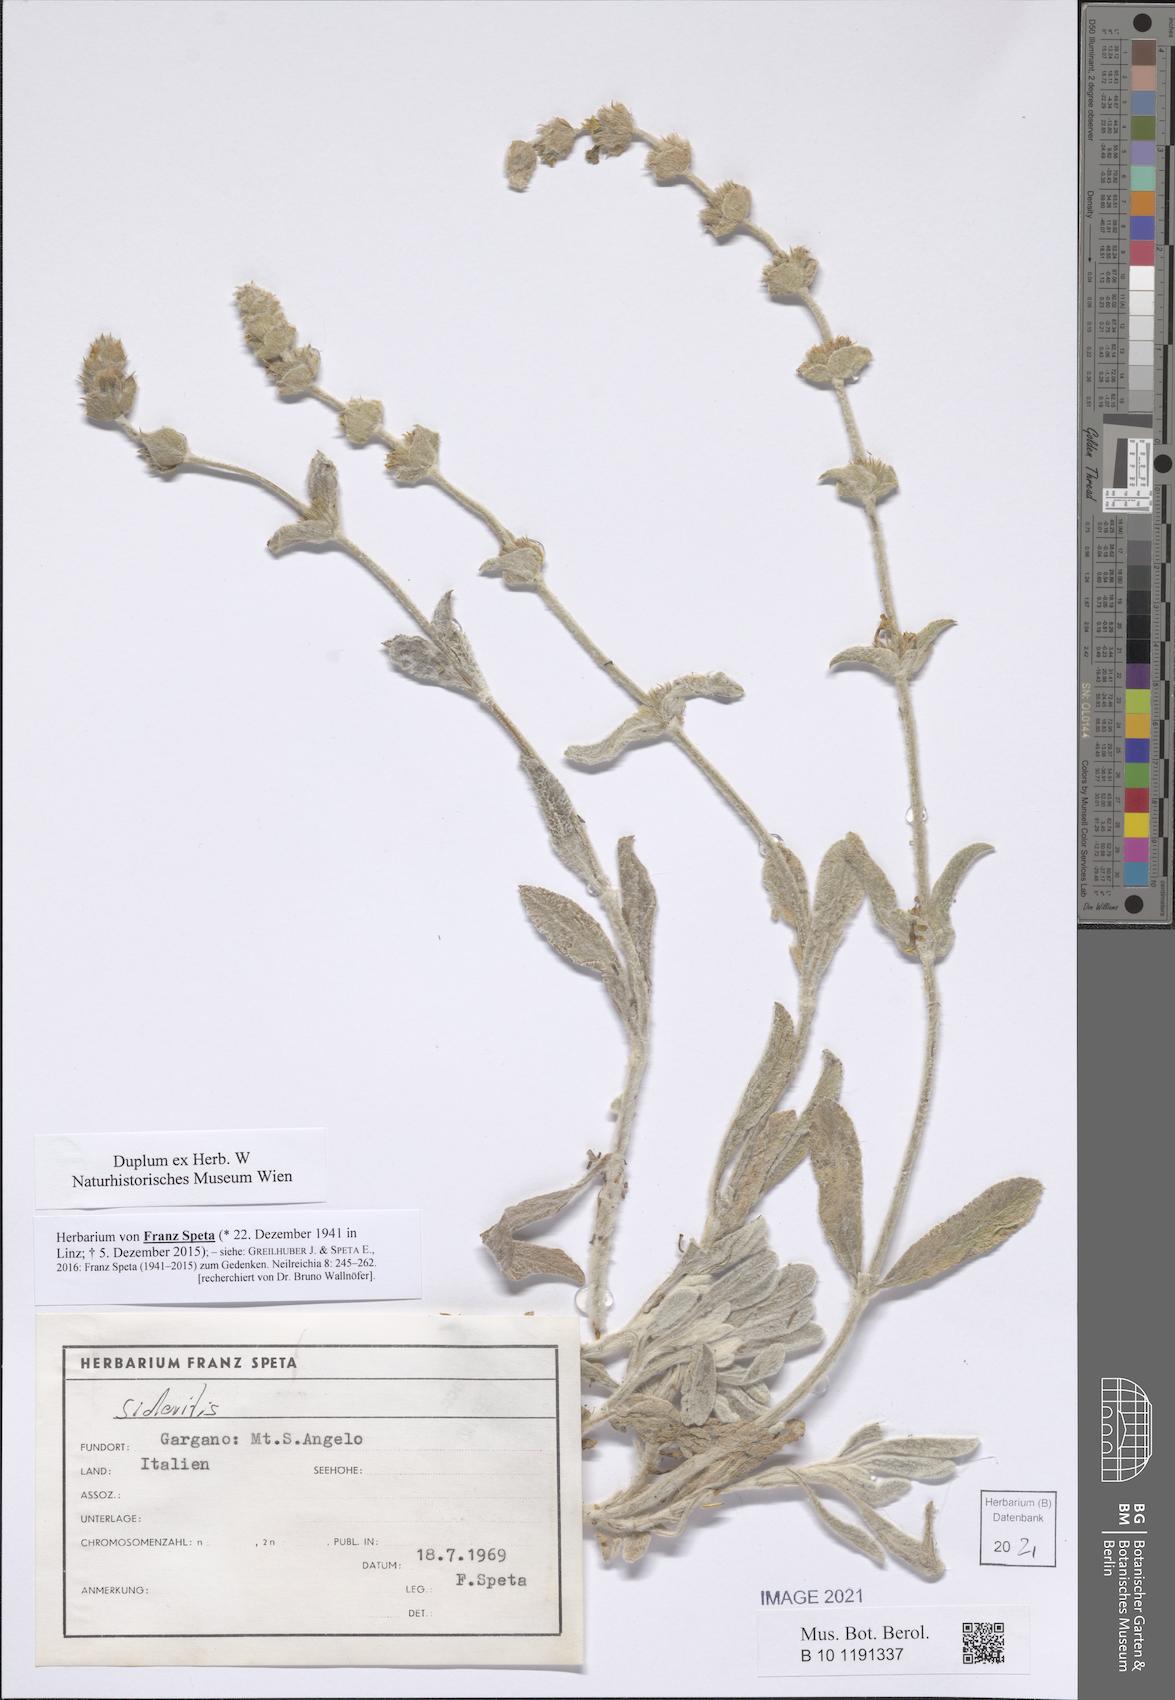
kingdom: Plantae
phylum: Tracheophyta
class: Magnoliopsida
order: Lamiales
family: Lamiaceae
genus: Sideritis
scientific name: Sideritis
